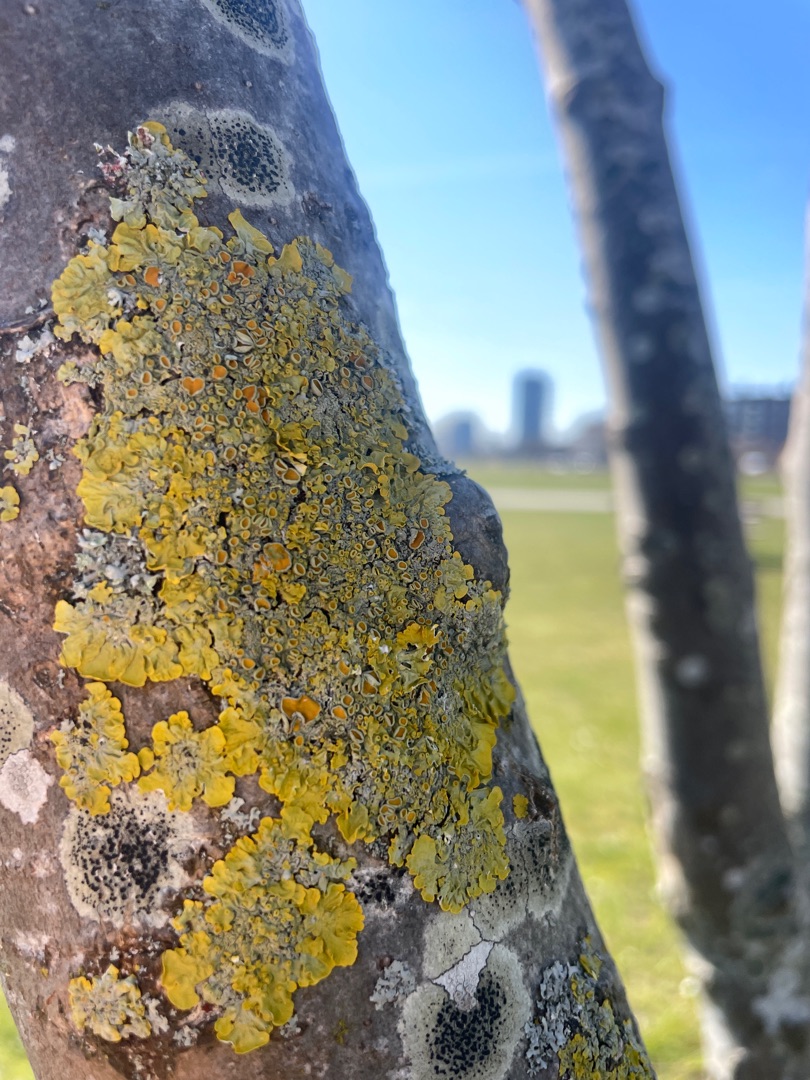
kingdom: Fungi
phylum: Ascomycota
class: Lecanoromycetes
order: Teloschistales
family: Teloschistaceae
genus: Xanthoria
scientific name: Xanthoria parietina
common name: Almindelig væggelav
